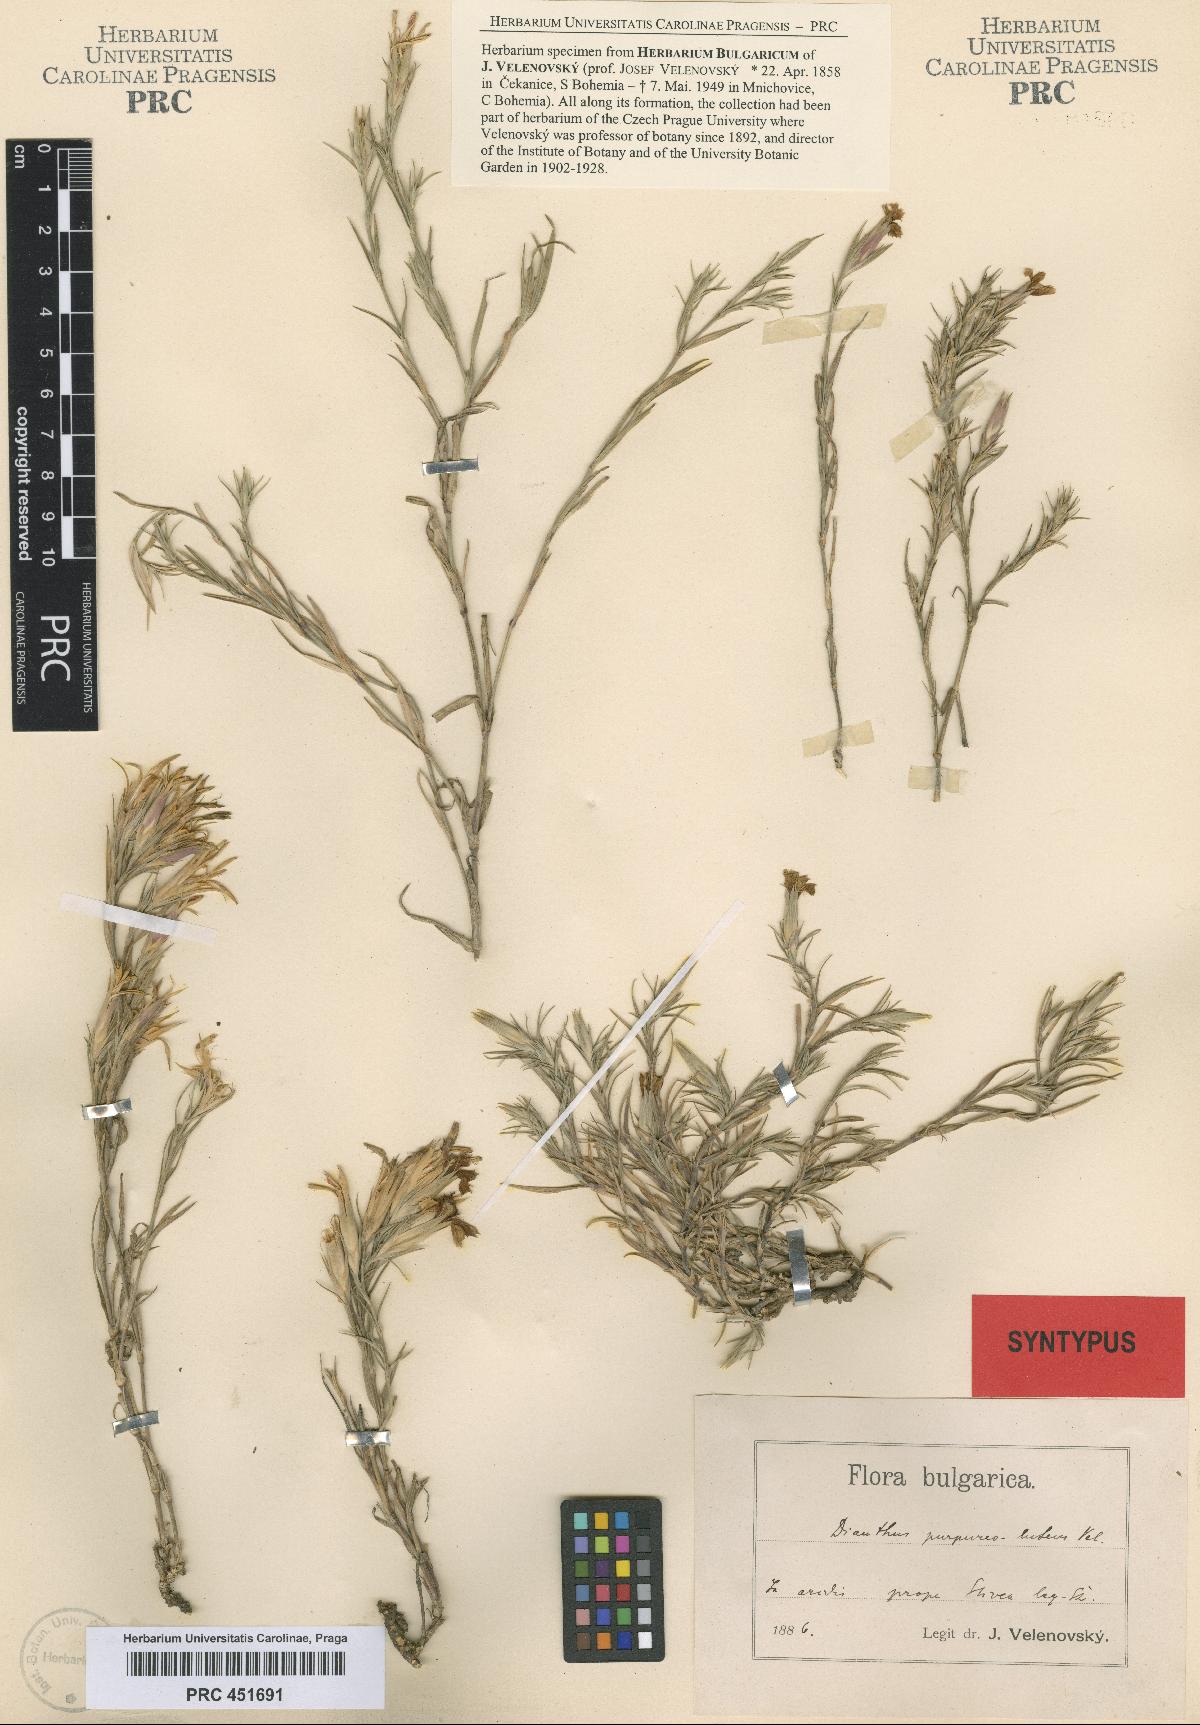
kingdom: Plantae
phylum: Tracheophyta
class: Magnoliopsida
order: Caryophyllales
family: Caryophyllaceae
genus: Dianthus
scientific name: Dianthus roseoluteus
